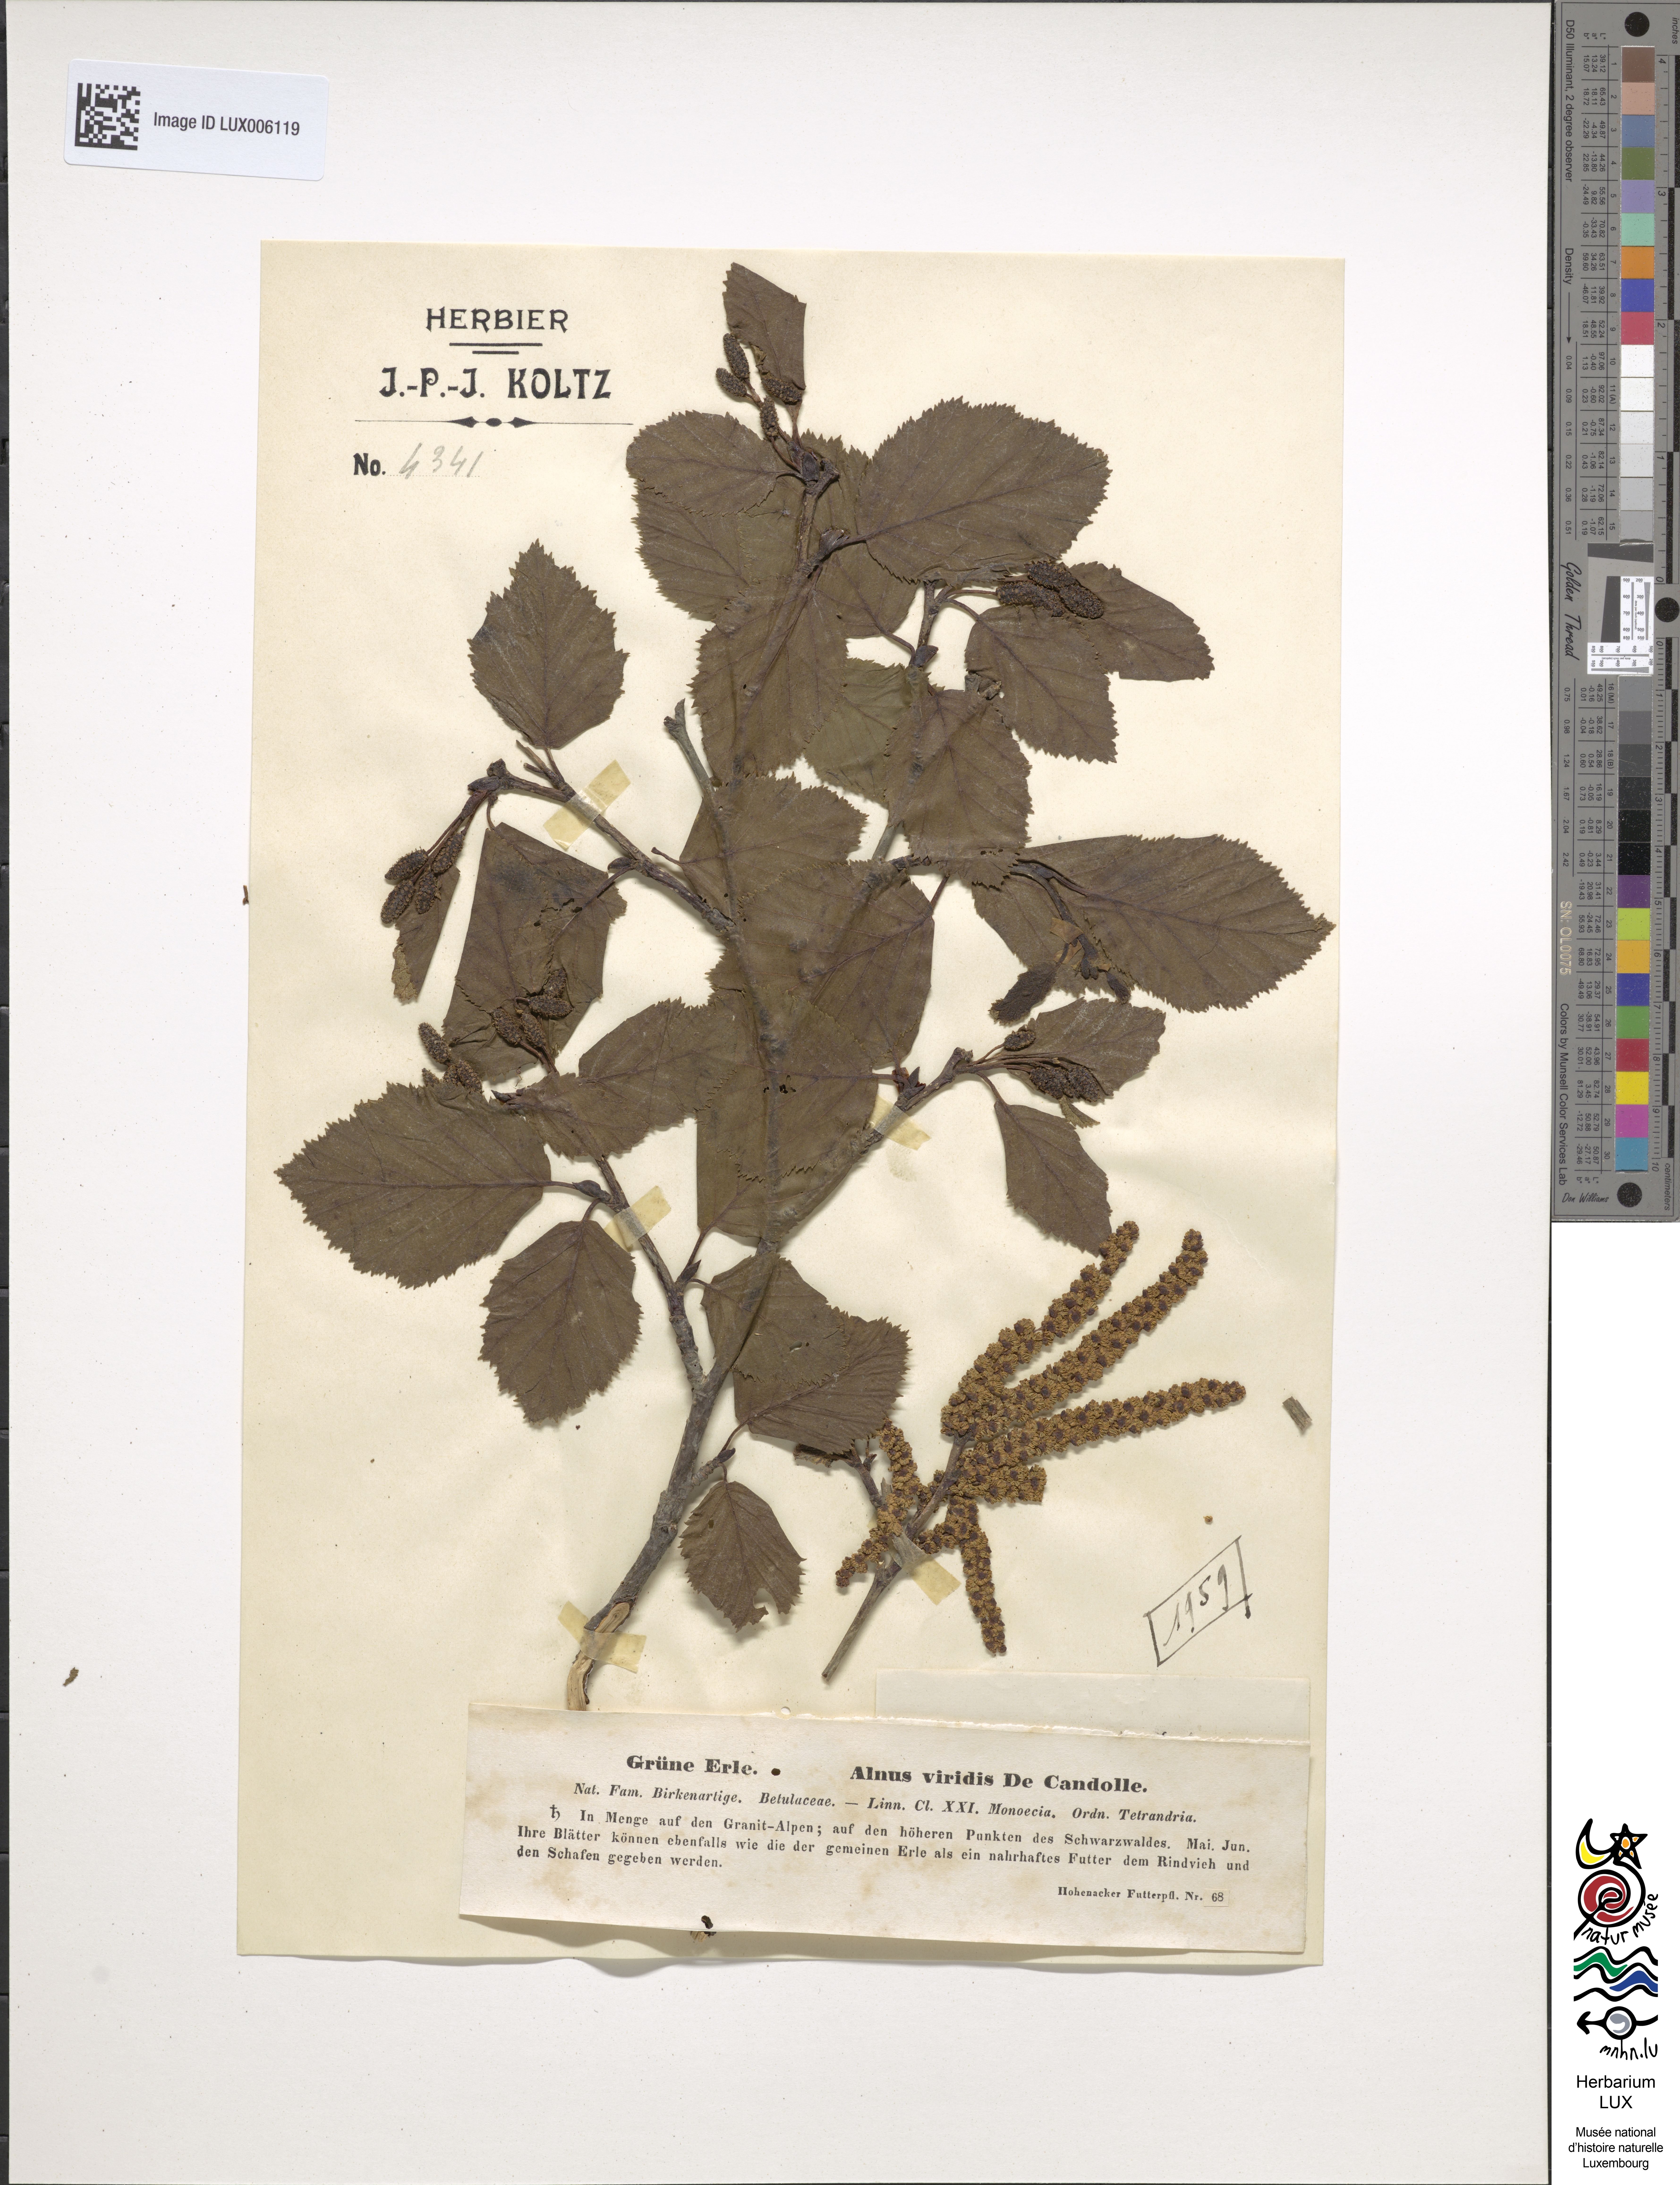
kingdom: Plantae
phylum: Tracheophyta
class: Magnoliopsida
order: Fagales
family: Betulaceae
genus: Alnus
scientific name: Alnus alnobetula
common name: Green alder
